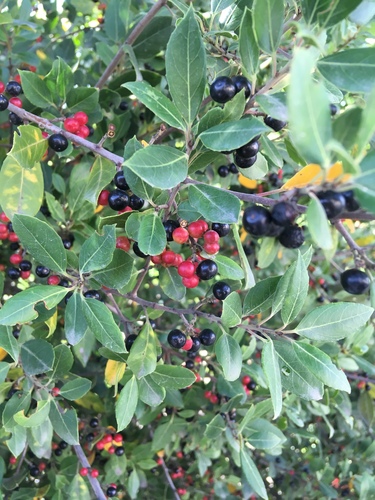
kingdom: Plantae
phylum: Tracheophyta
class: Magnoliopsida
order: Rosales
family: Rhamnaceae
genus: Rhamnus
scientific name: Rhamnus alaternus
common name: Mediterranean buckthorn
